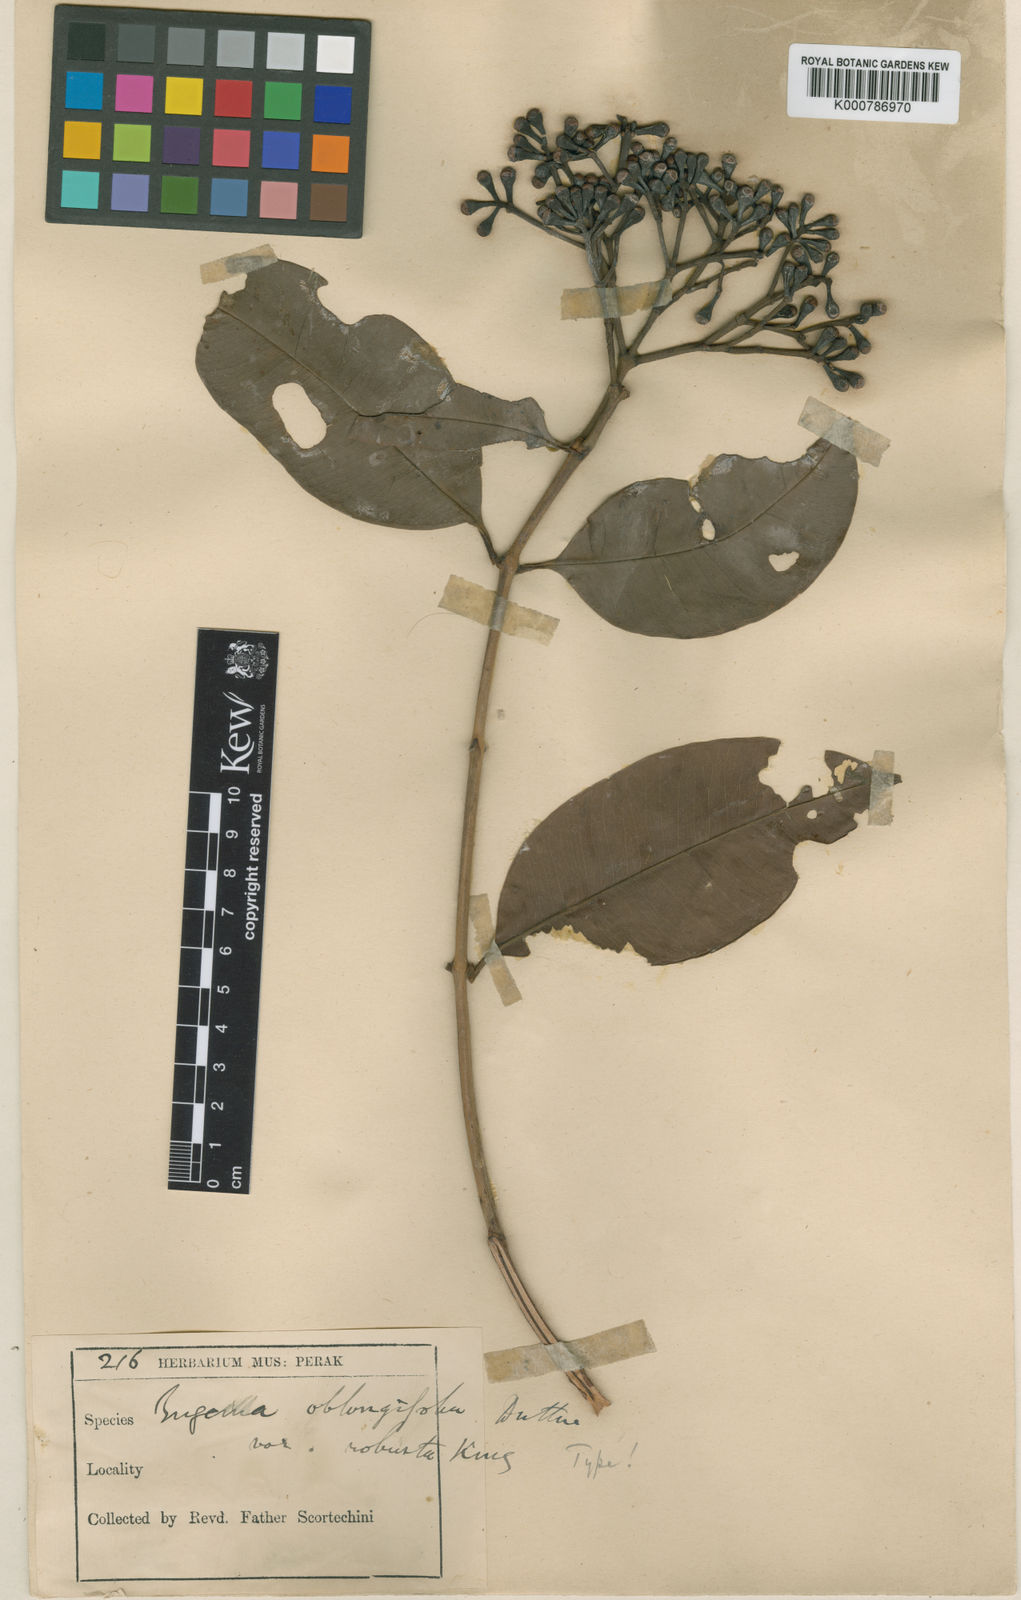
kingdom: Plantae
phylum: Tracheophyta
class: Magnoliopsida
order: Myrtales
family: Myrtaceae
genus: Syzygium
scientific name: Syzygium
